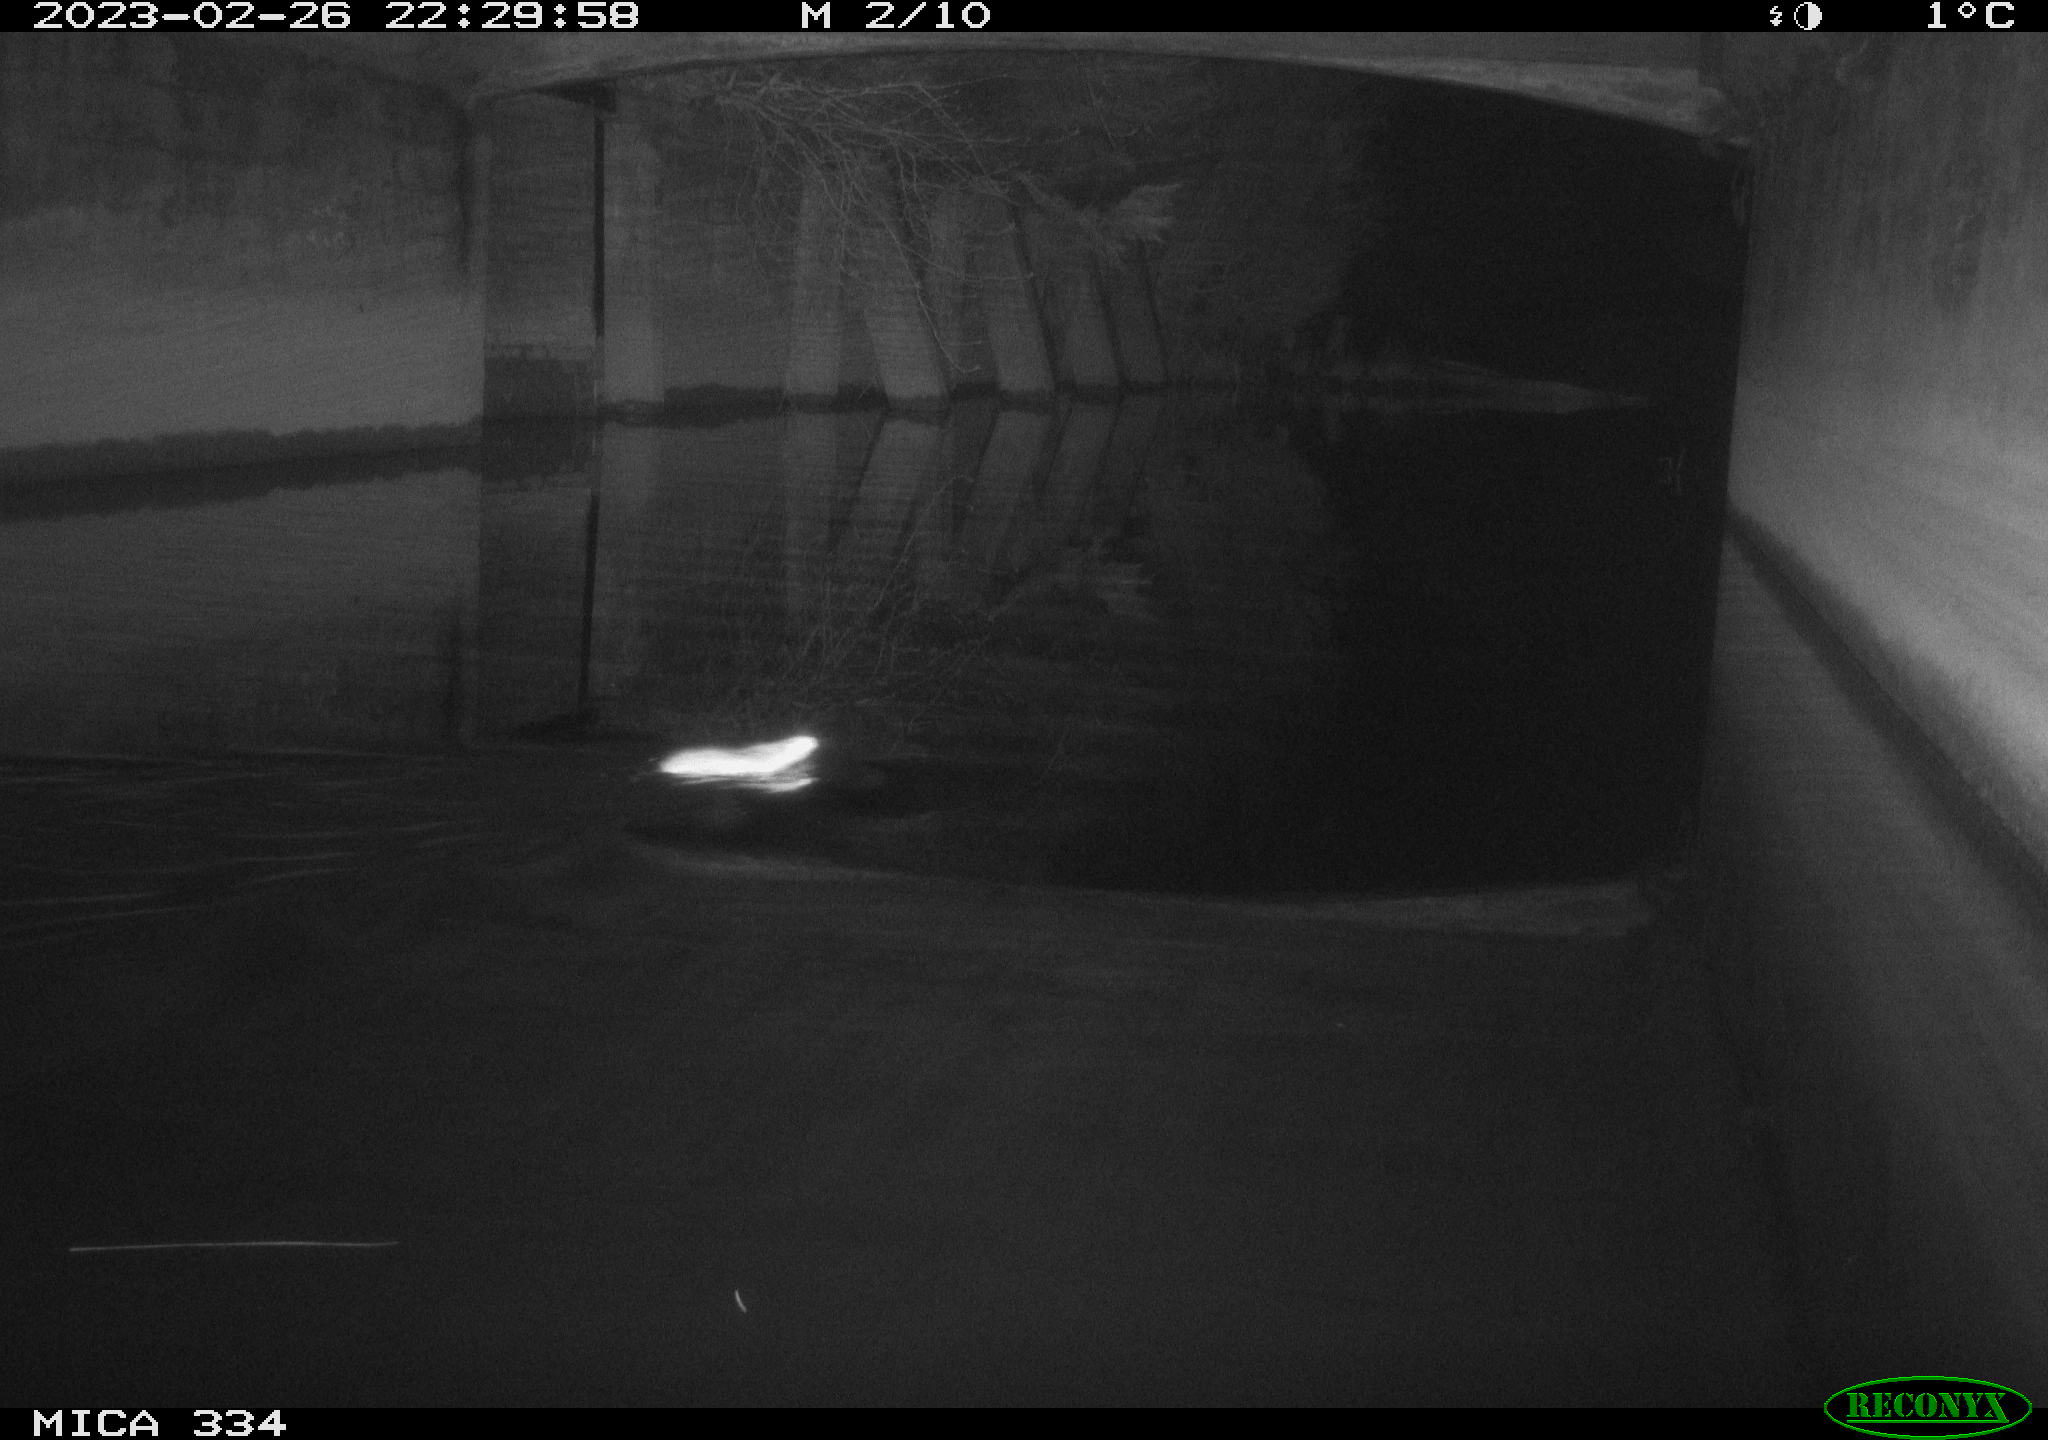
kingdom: Animalia
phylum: Chordata
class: Mammalia
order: Rodentia
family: Muridae
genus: Rattus
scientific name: Rattus norvegicus
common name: Brown rat
